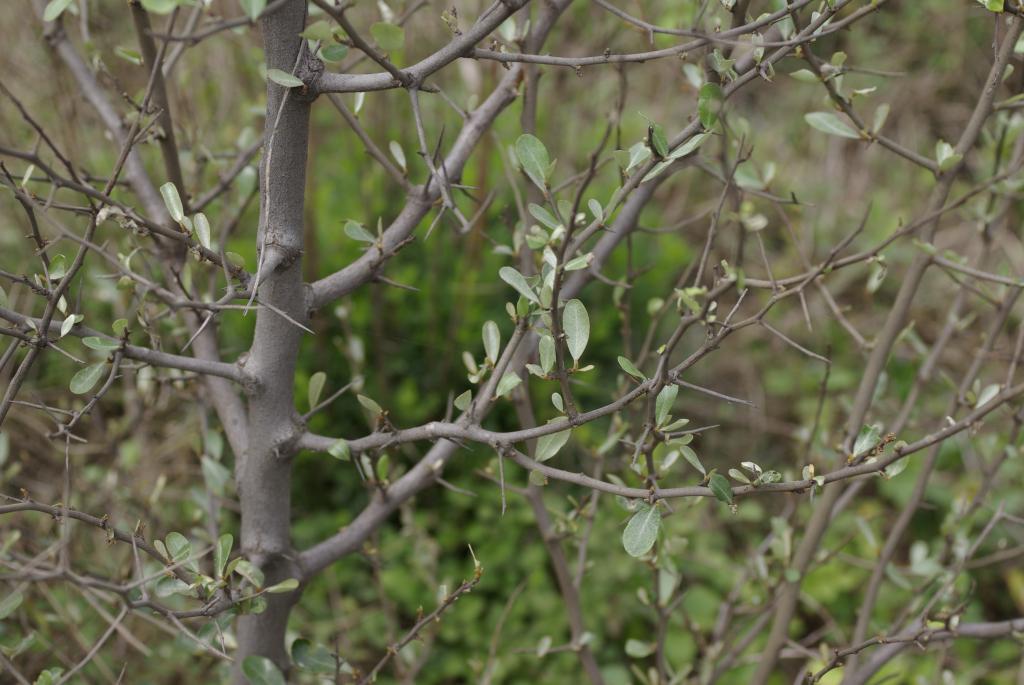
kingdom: Plantae
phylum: Tracheophyta
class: Magnoliopsida
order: Rosales
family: Elaeagnaceae
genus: Elaeagnus
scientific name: Elaeagnus oldhamii
